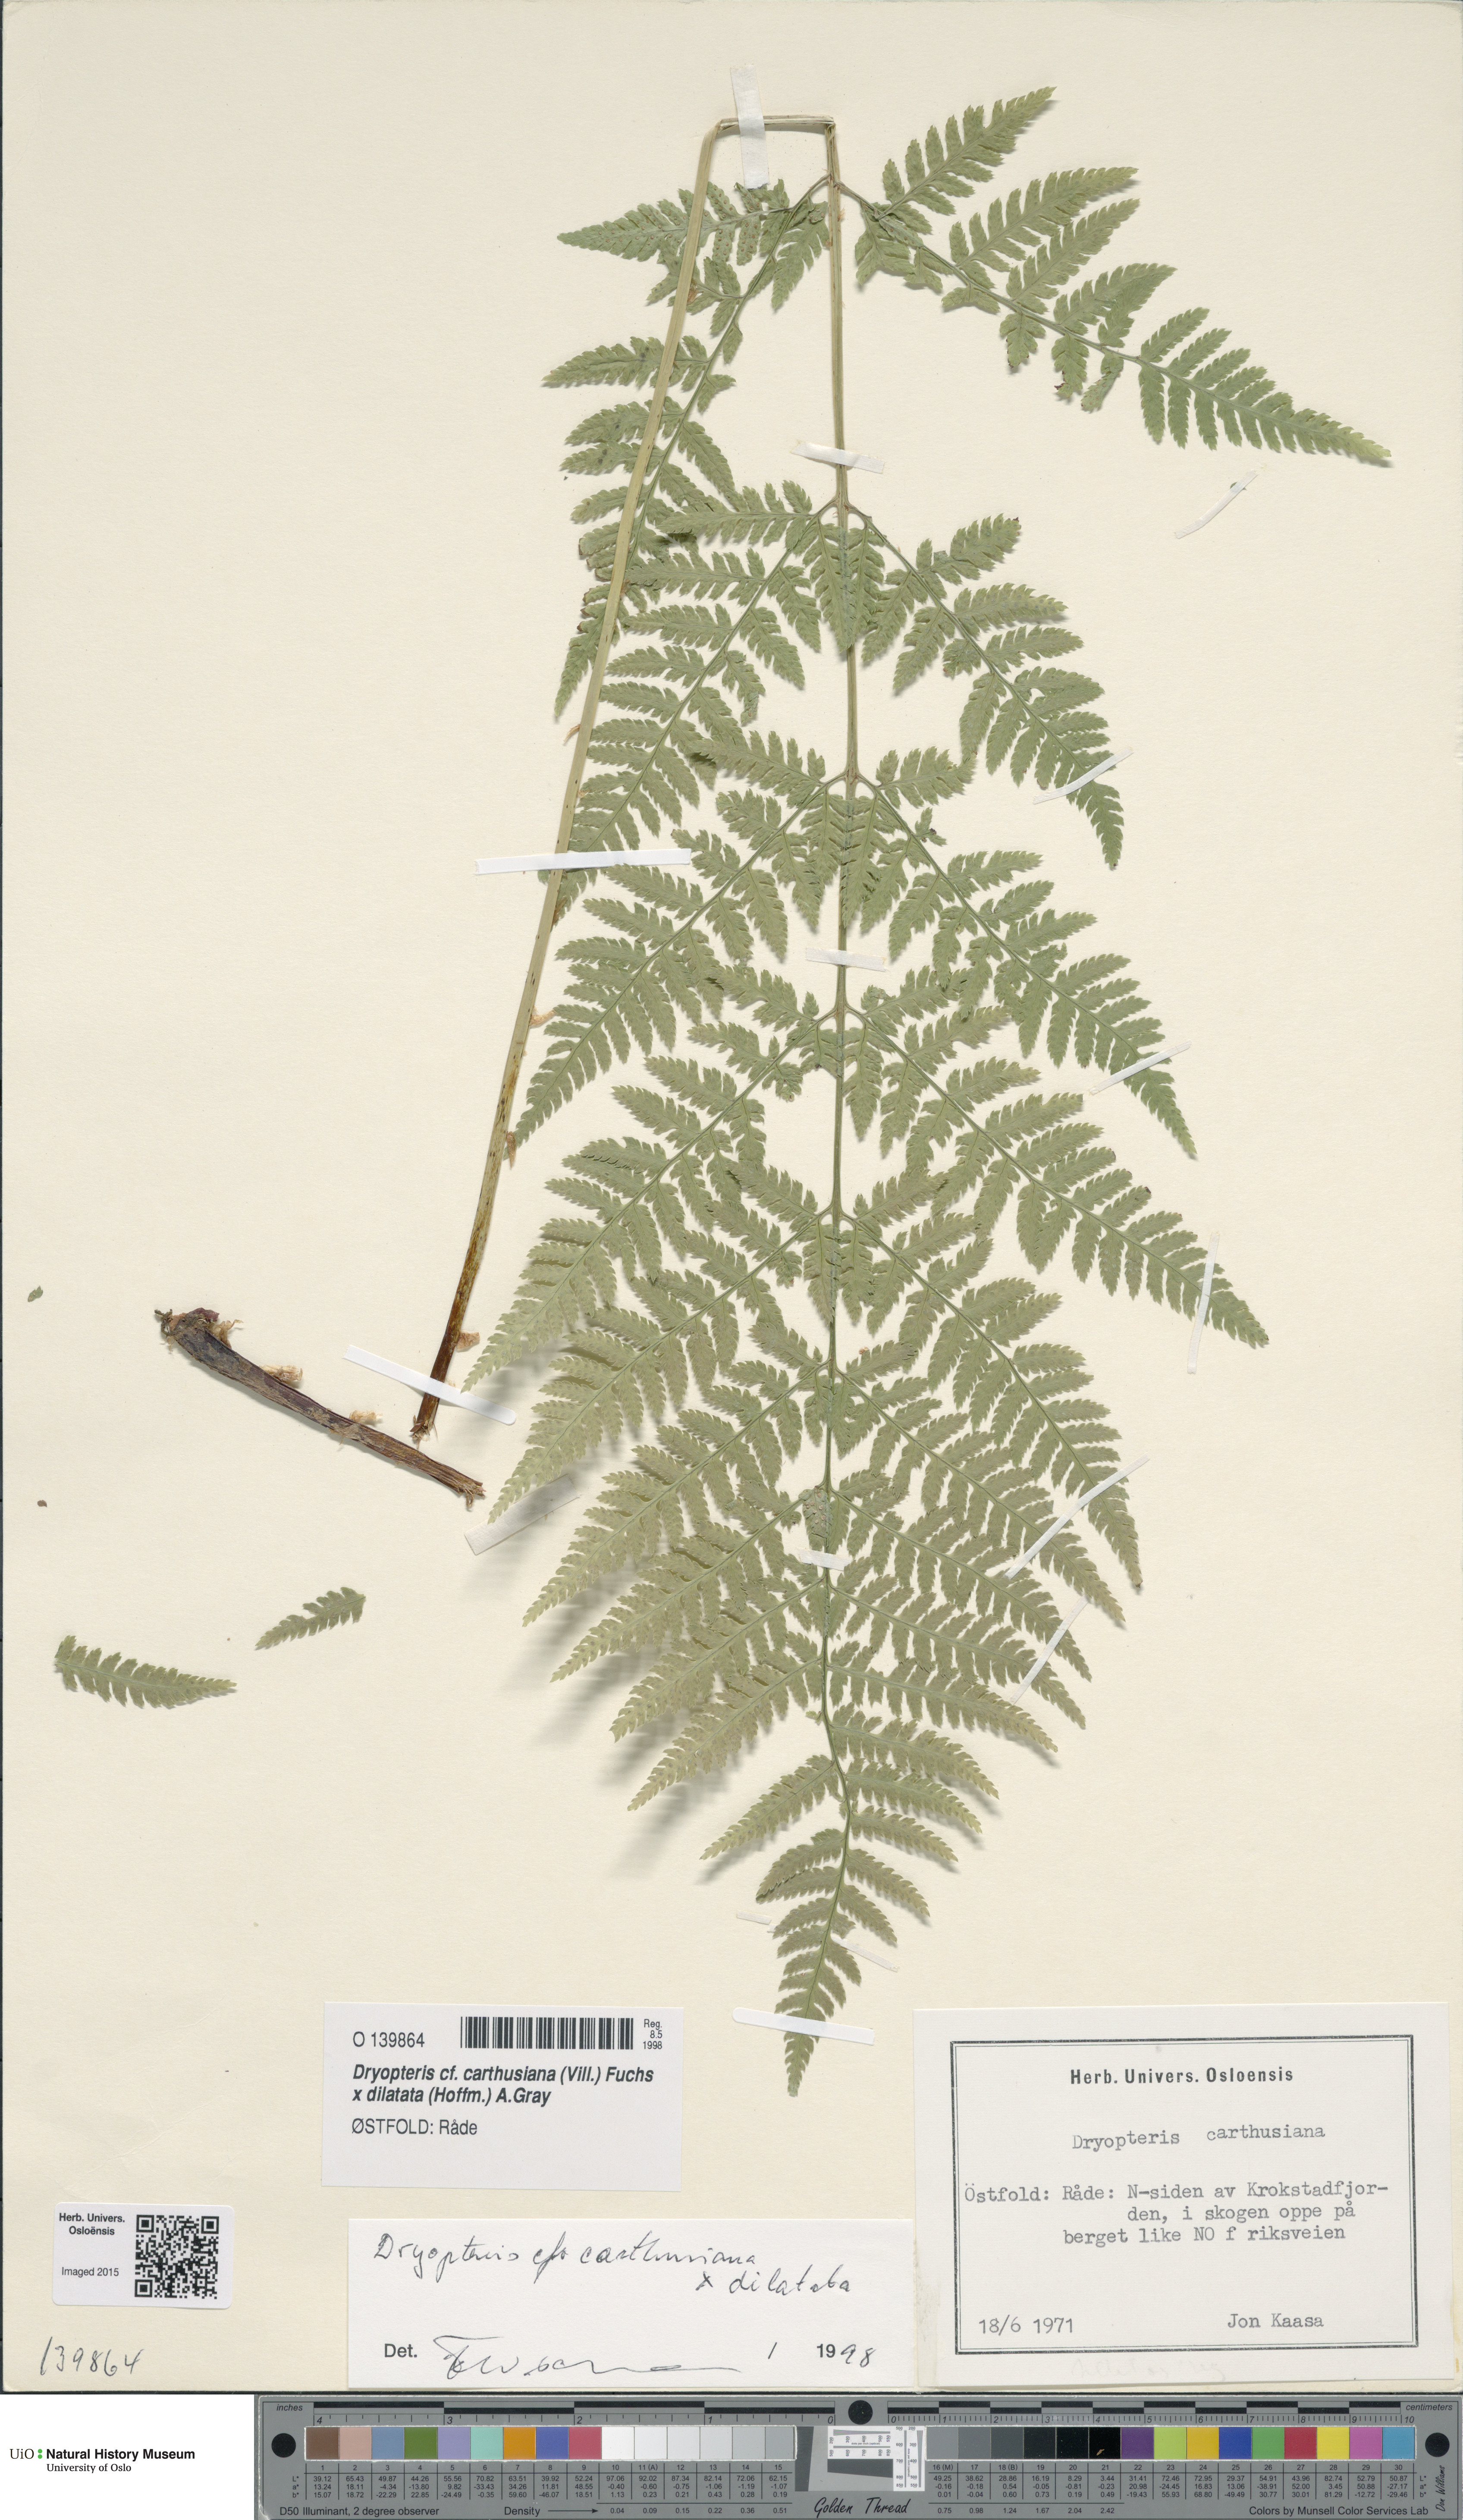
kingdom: Plantae
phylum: Tracheophyta
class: Polypodiopsida
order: Polypodiales
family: Dryopteridaceae
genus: Dryopteris
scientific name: Dryopteris
